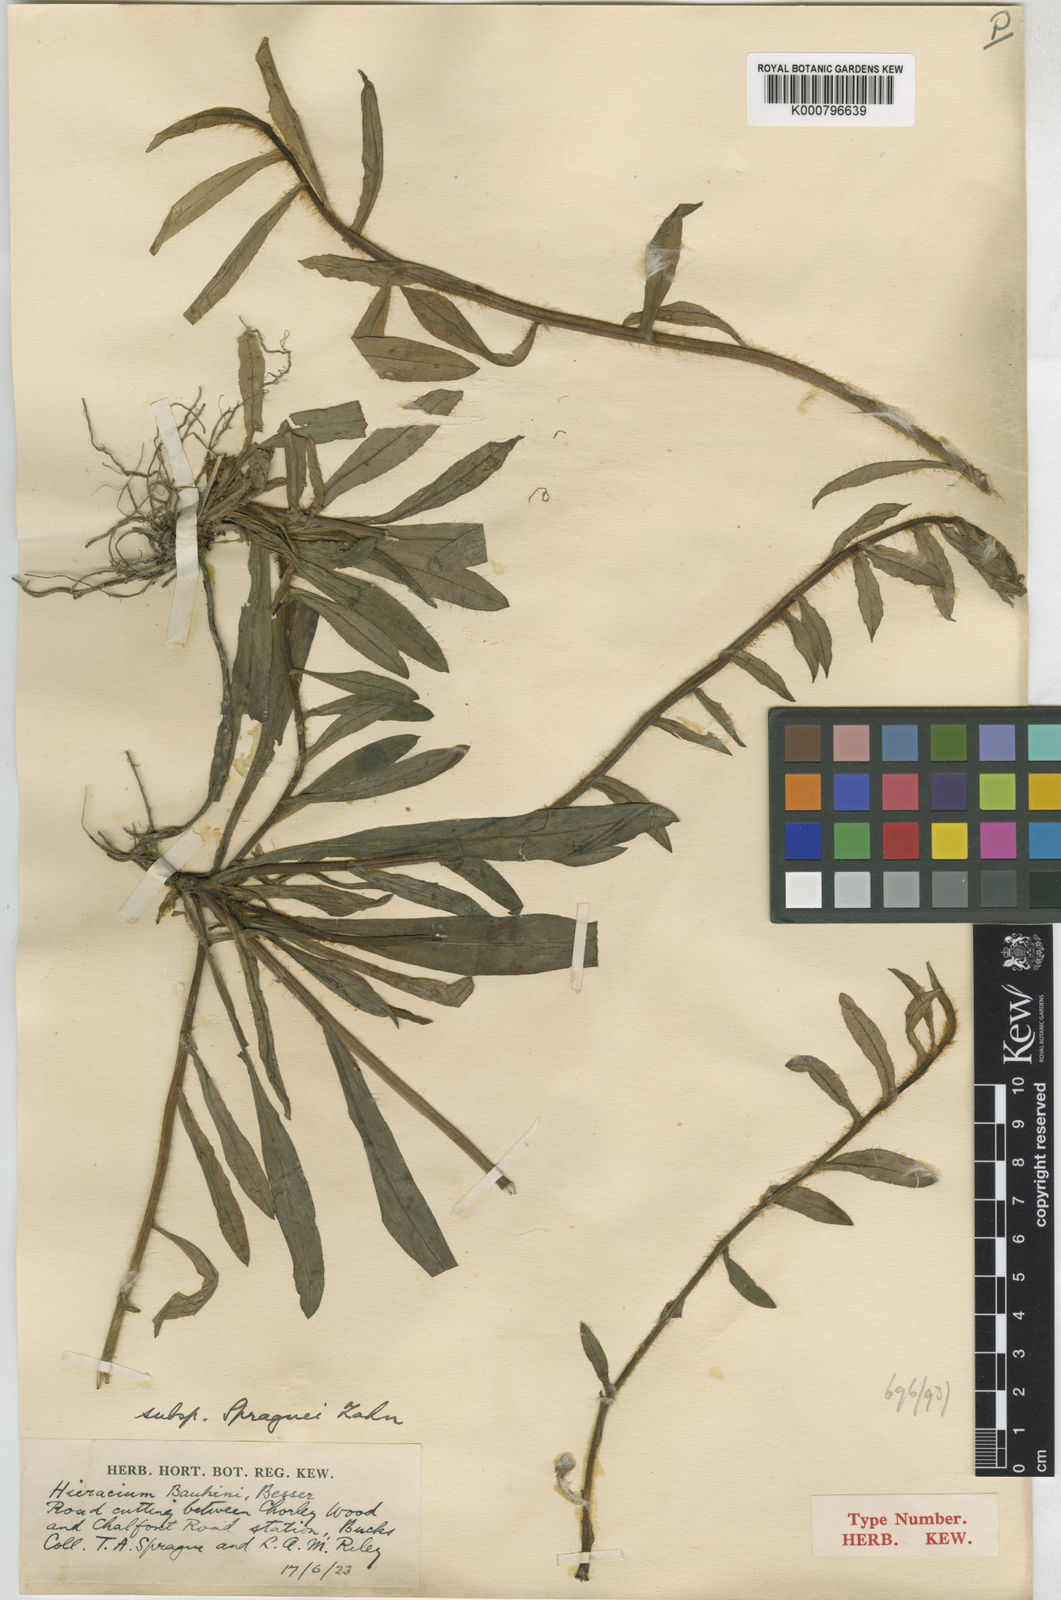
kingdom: Plantae
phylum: Tracheophyta
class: Magnoliopsida
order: Asterales
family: Asteraceae
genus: Pilosella
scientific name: Pilosella bauhini
